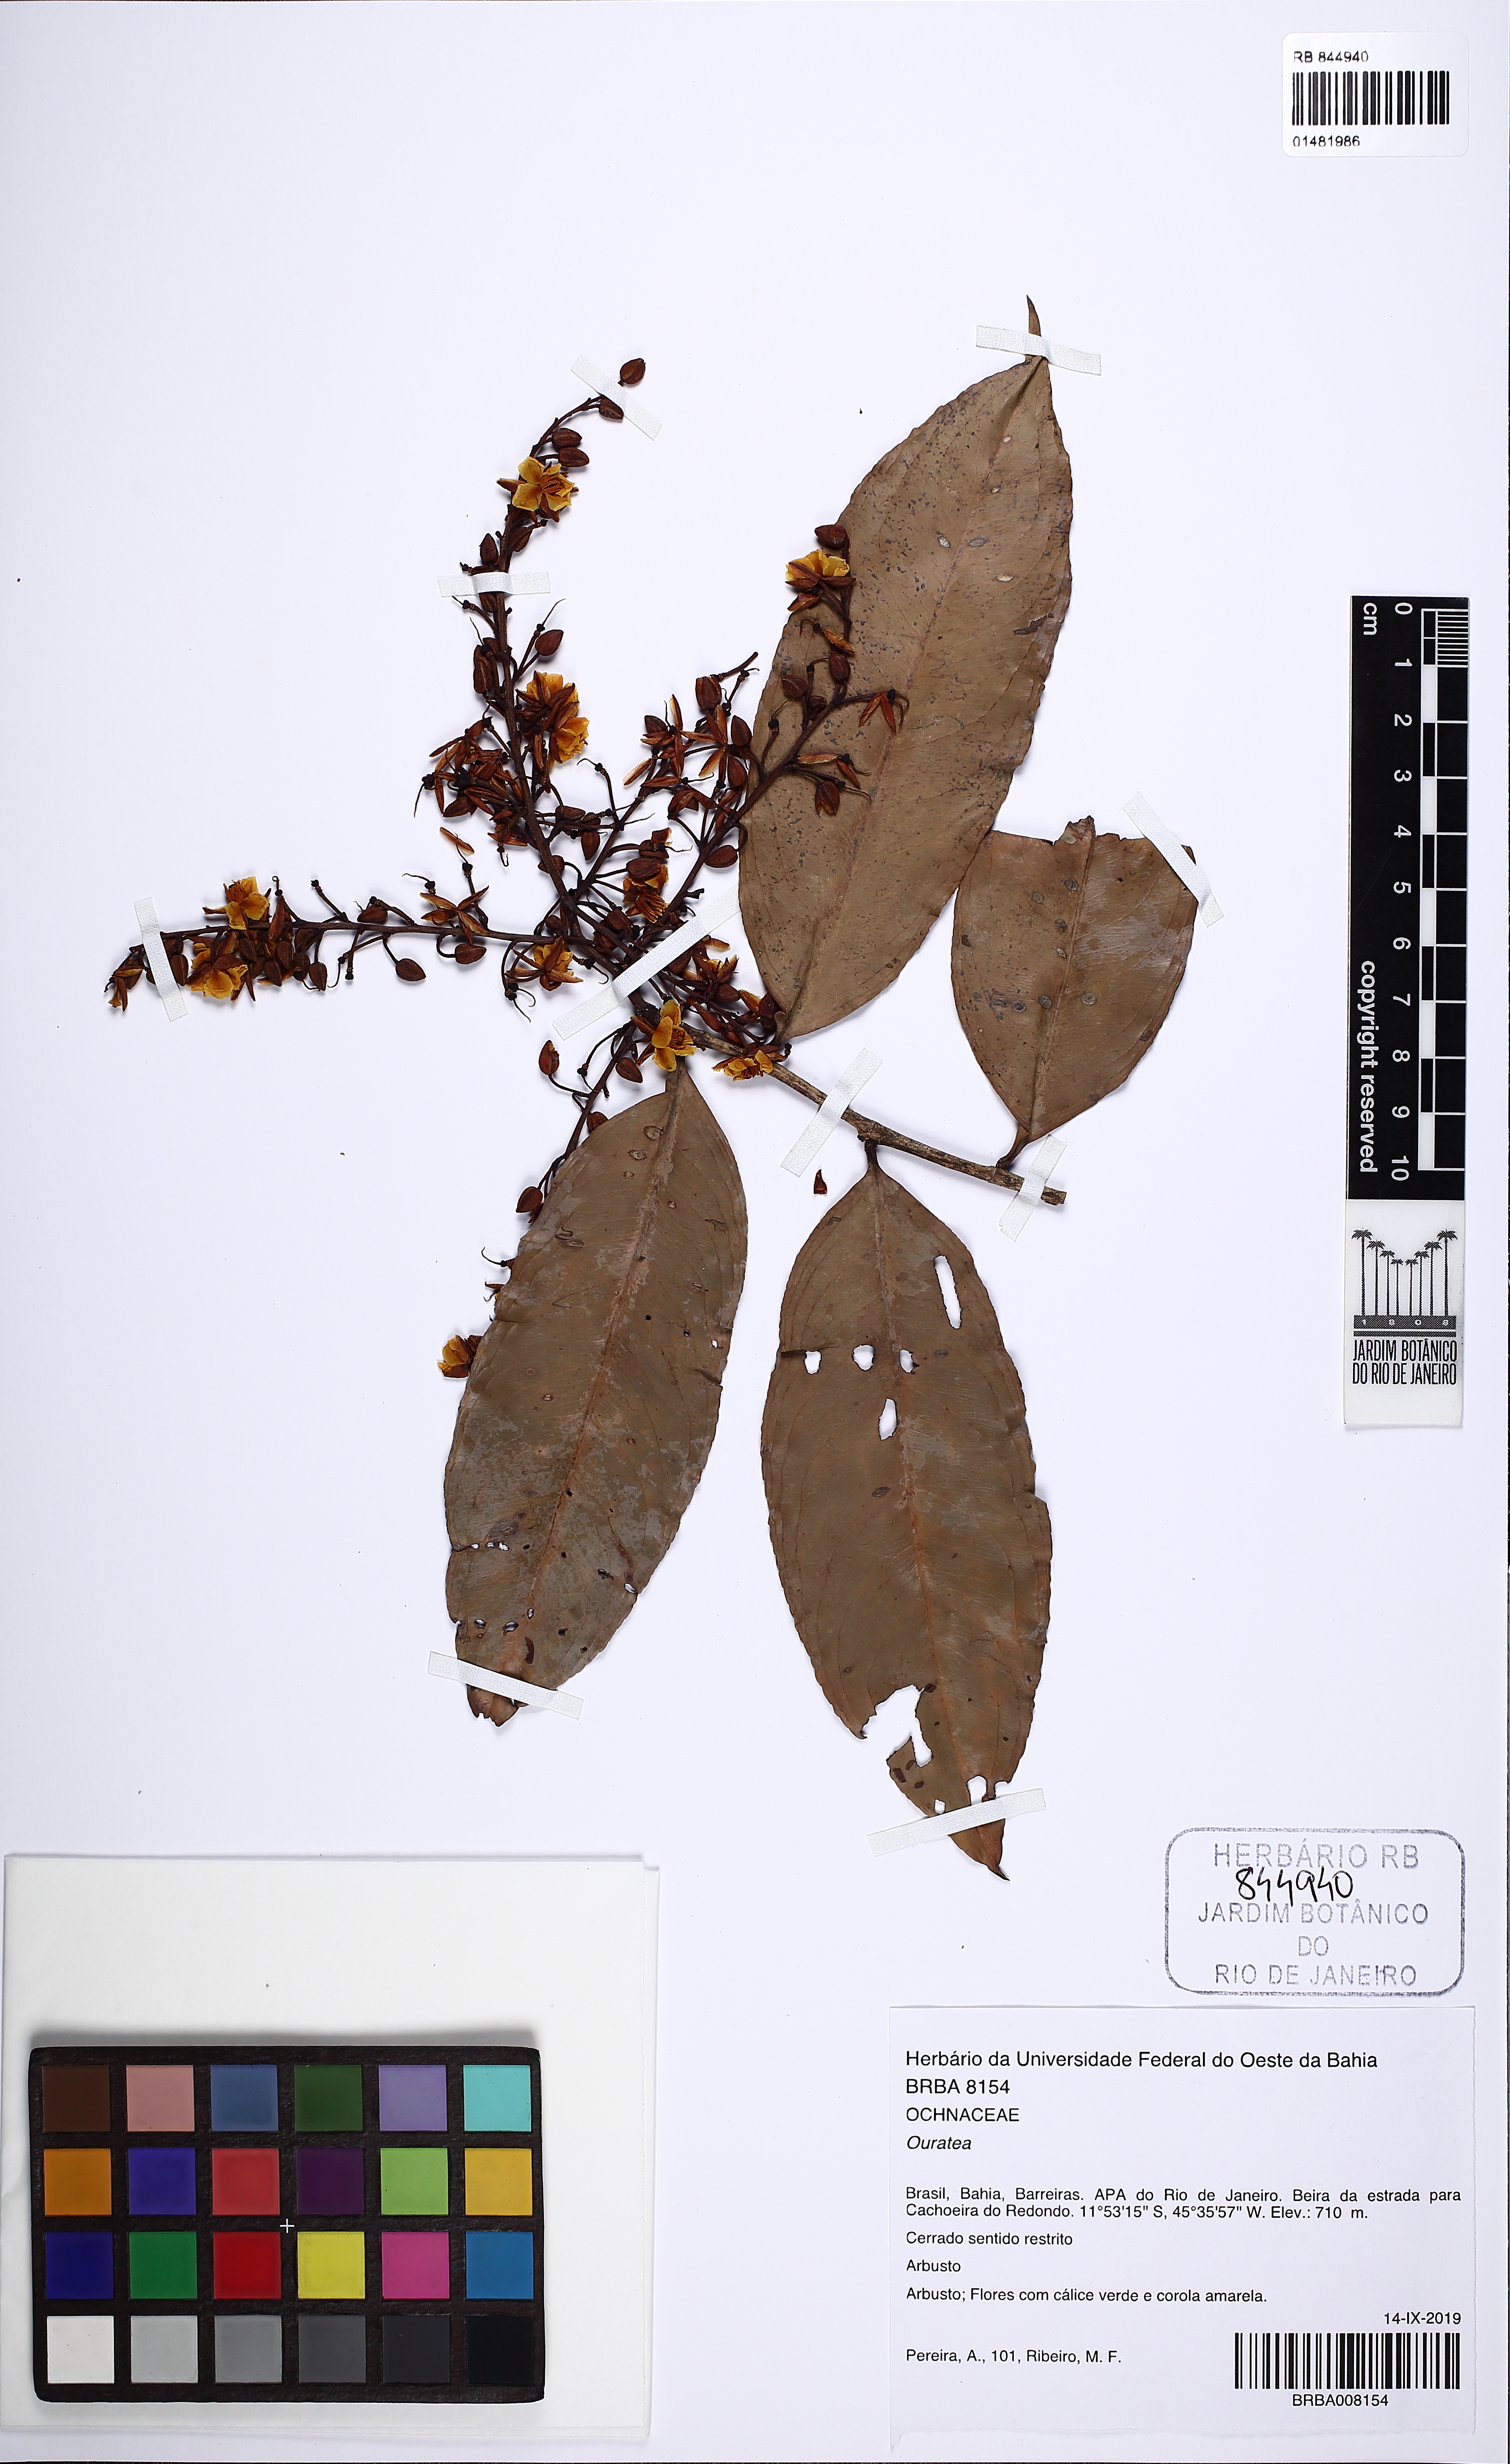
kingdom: Plantae
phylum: Tracheophyta
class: Magnoliopsida
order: Malpighiales
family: Ochnaceae
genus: Ouratea
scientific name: Ouratea
